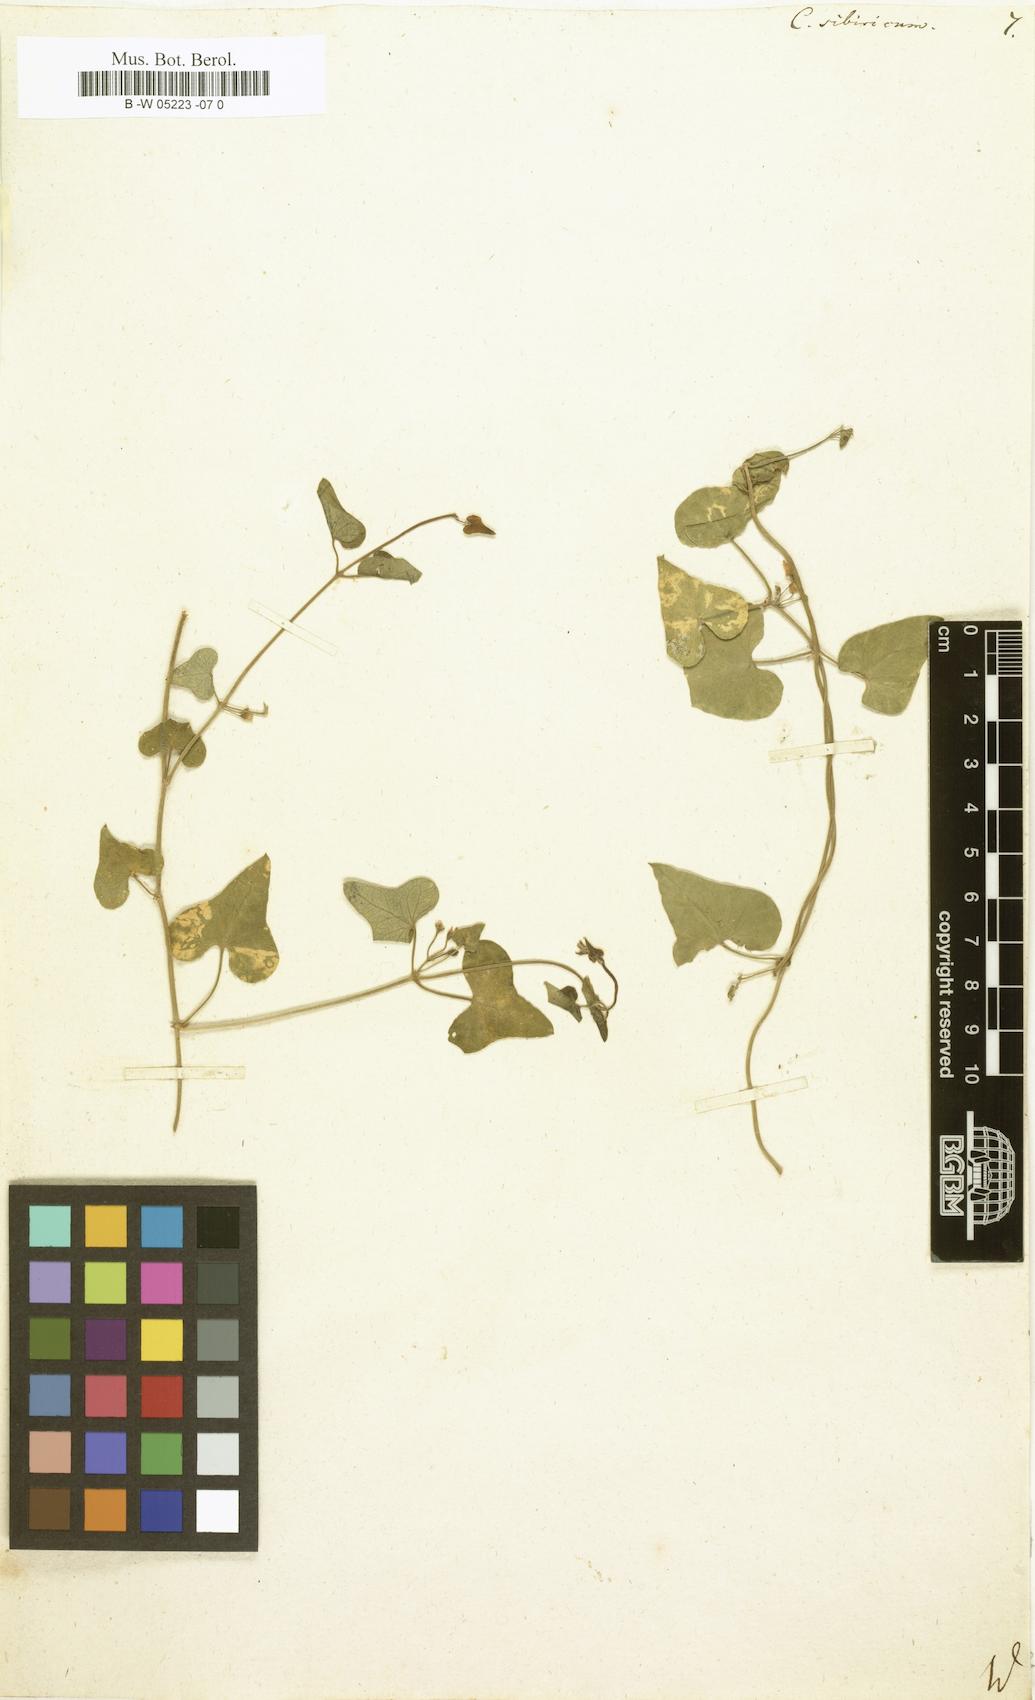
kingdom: Plantae
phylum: Tracheophyta
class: Magnoliopsida
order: Gentianales
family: Apocynaceae
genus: Cynanchum
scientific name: Cynanchum
